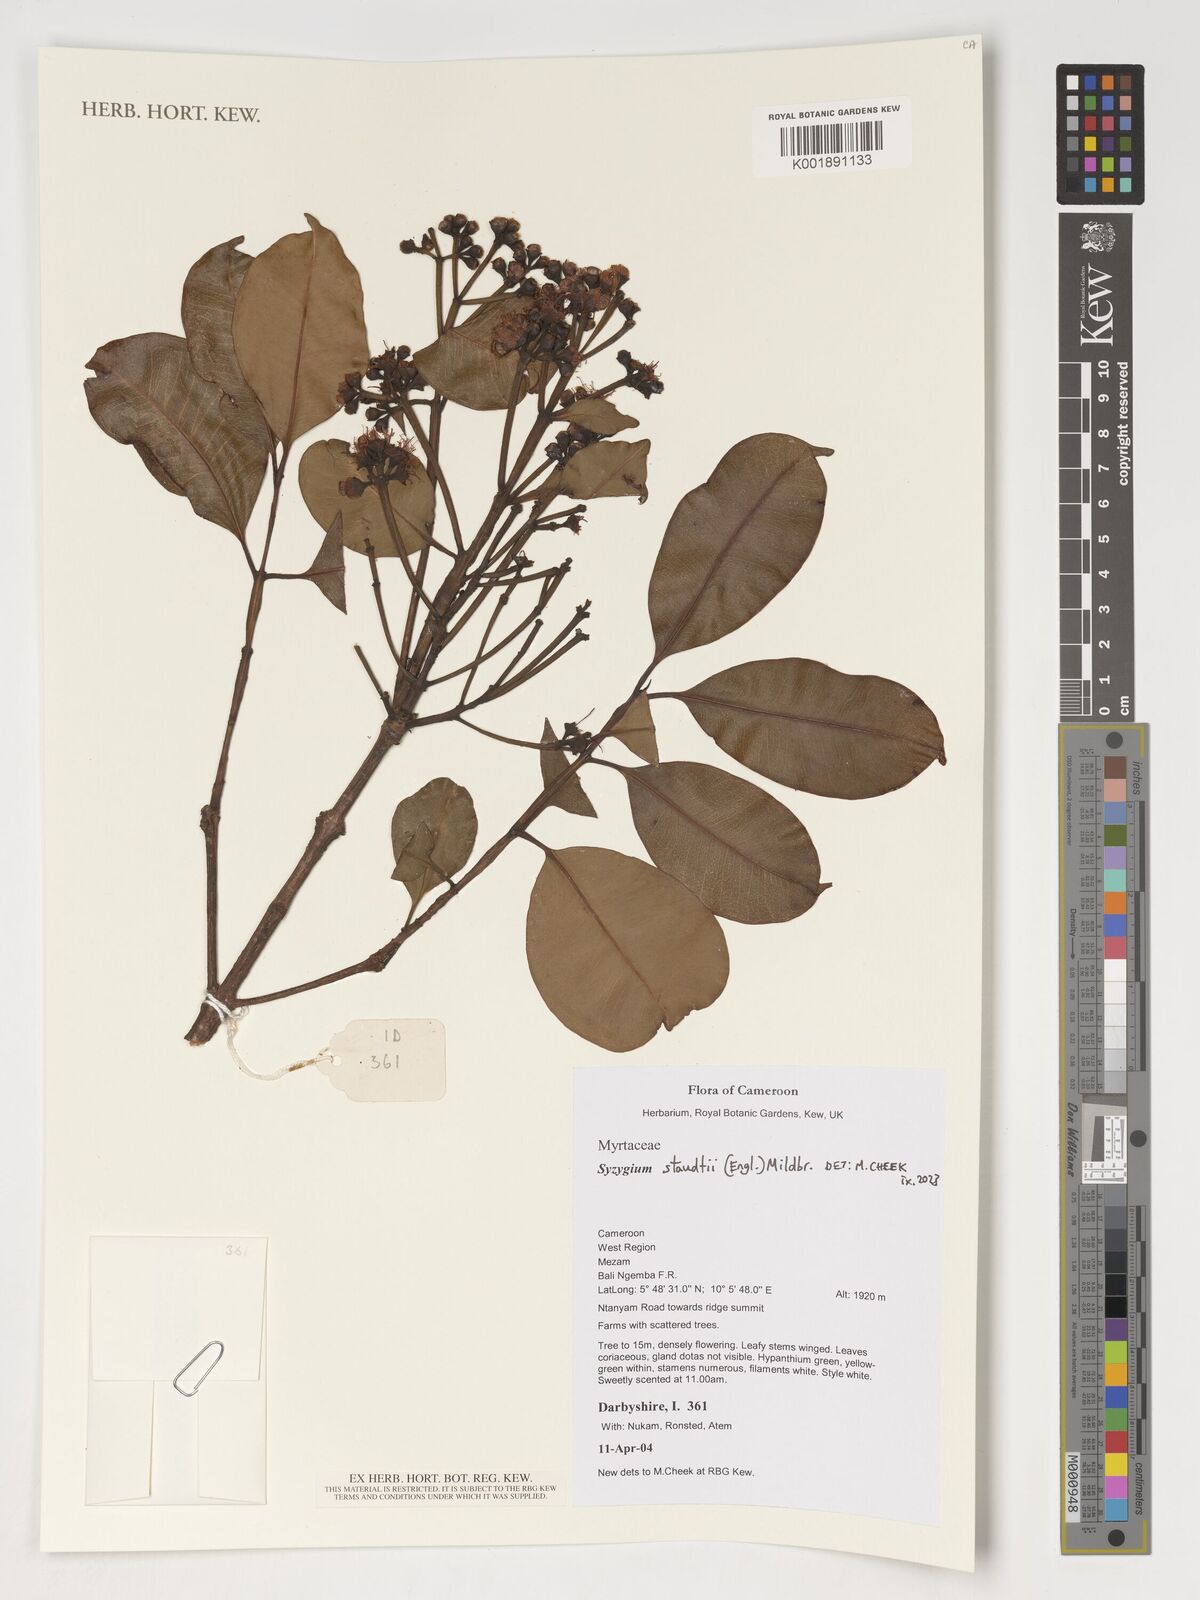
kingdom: Plantae
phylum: Tracheophyta
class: Magnoliopsida
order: Myrtales
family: Myrtaceae
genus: Syzygium
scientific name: Syzygium staudtii
